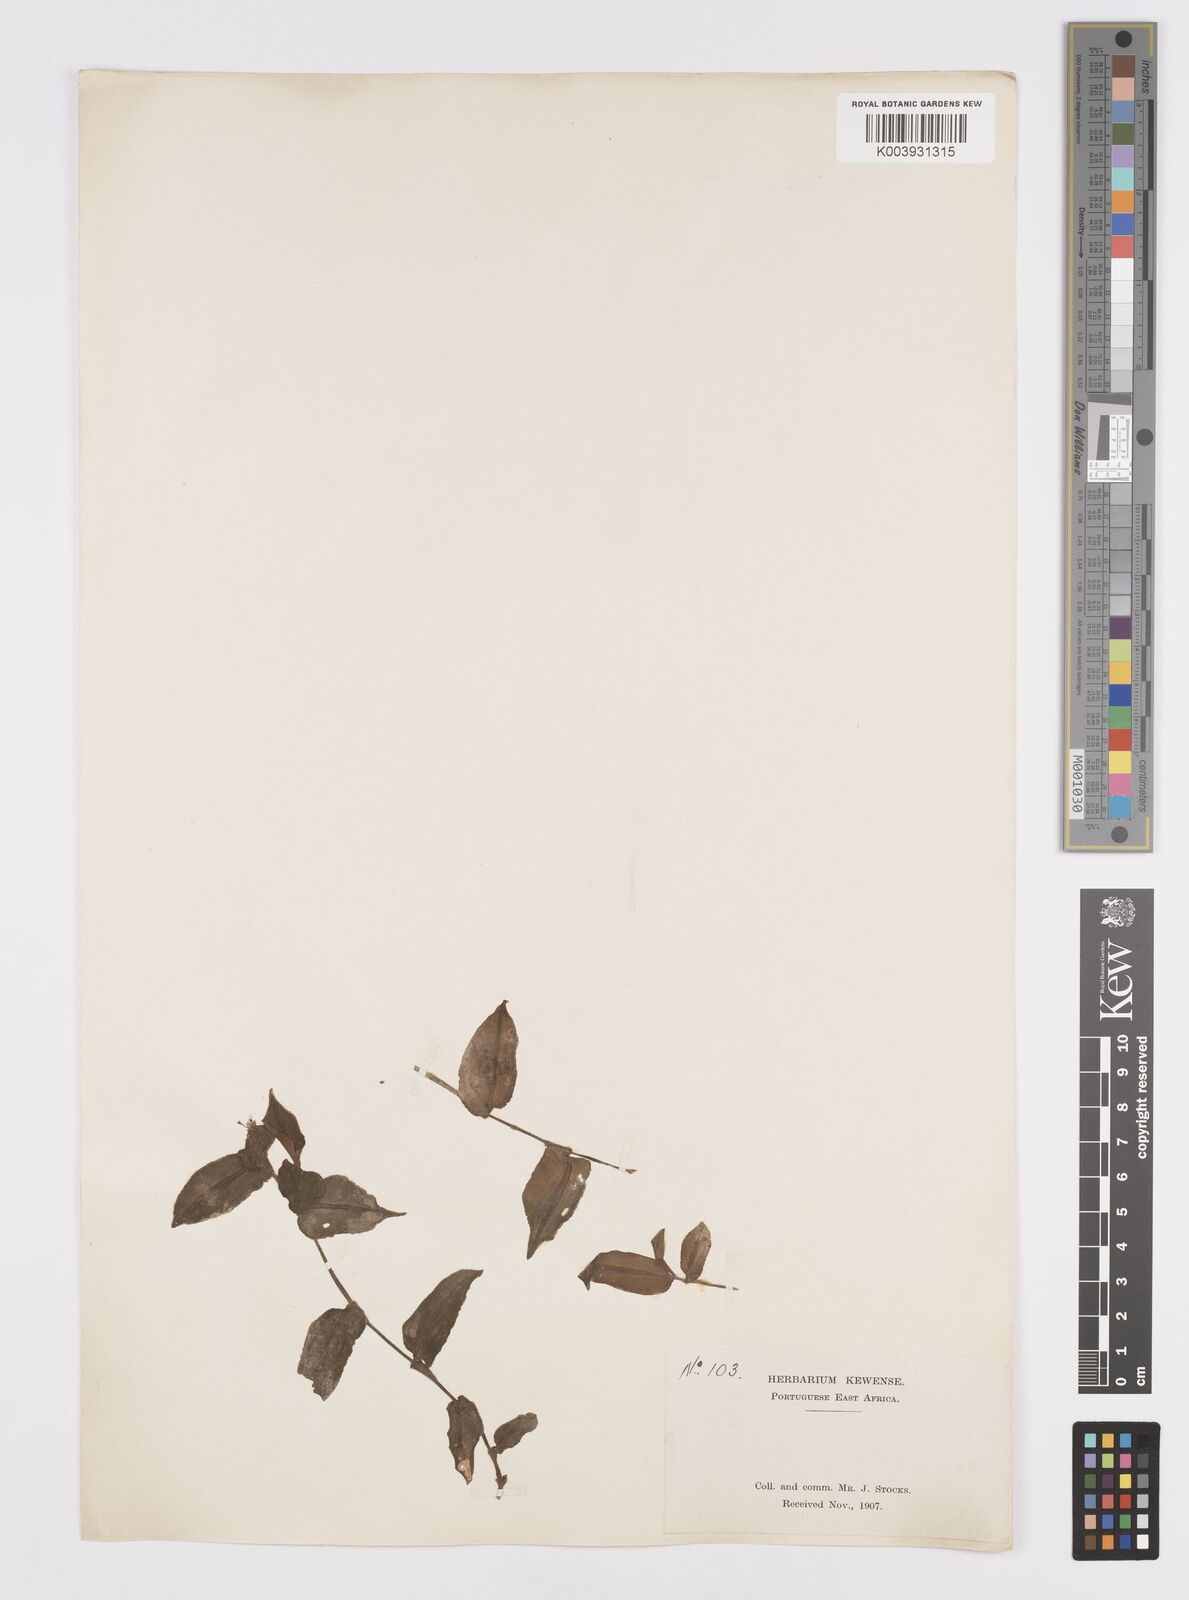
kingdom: Plantae
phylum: Tracheophyta
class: Liliopsida
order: Commelinales
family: Commelinaceae
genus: Commelina
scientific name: Commelina
